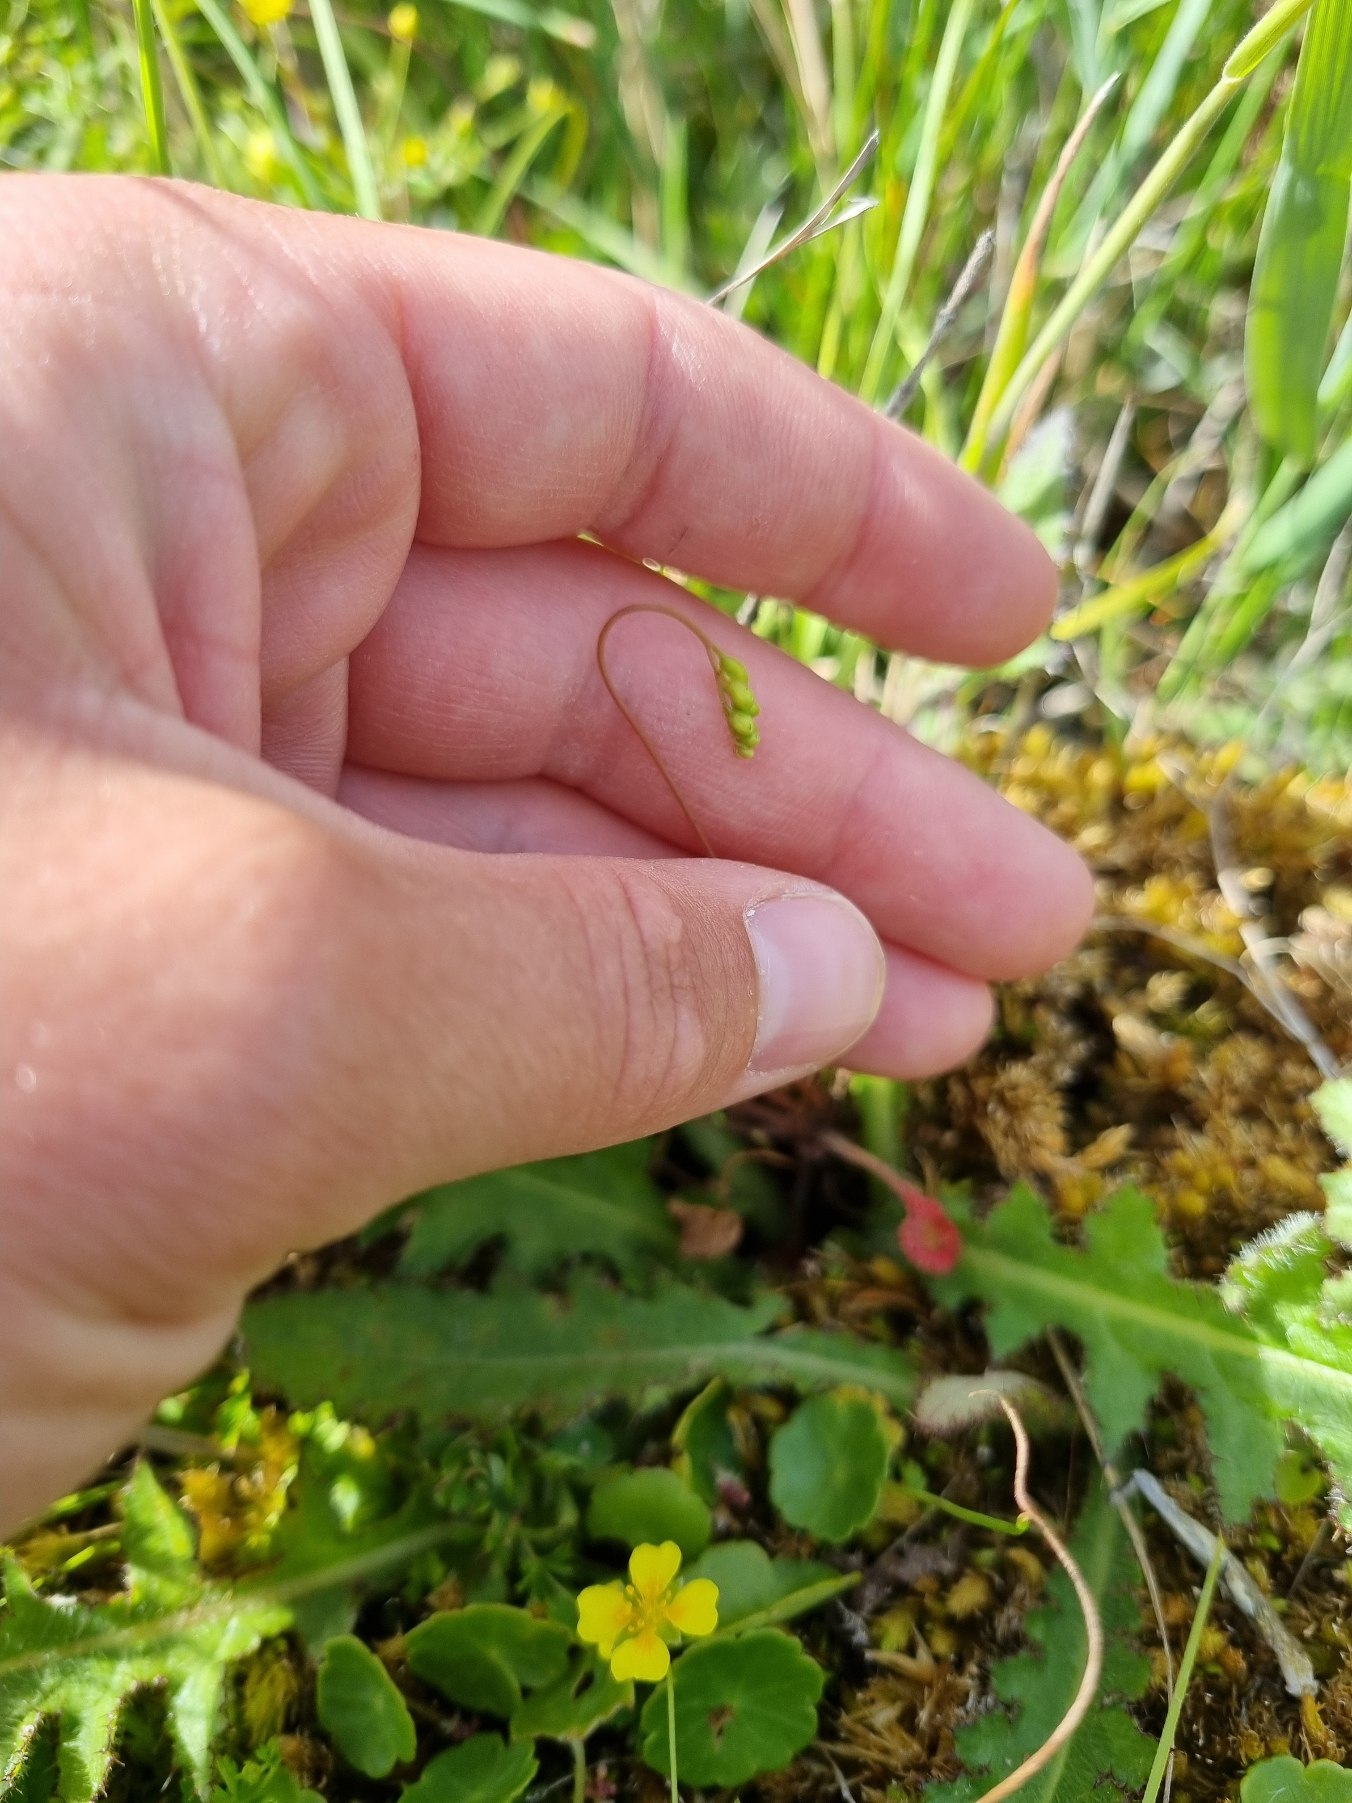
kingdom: Plantae
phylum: Tracheophyta
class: Magnoliopsida
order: Caryophyllales
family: Droseraceae
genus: Drosera
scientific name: Drosera rotundifolia
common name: Rundbladet soldug
